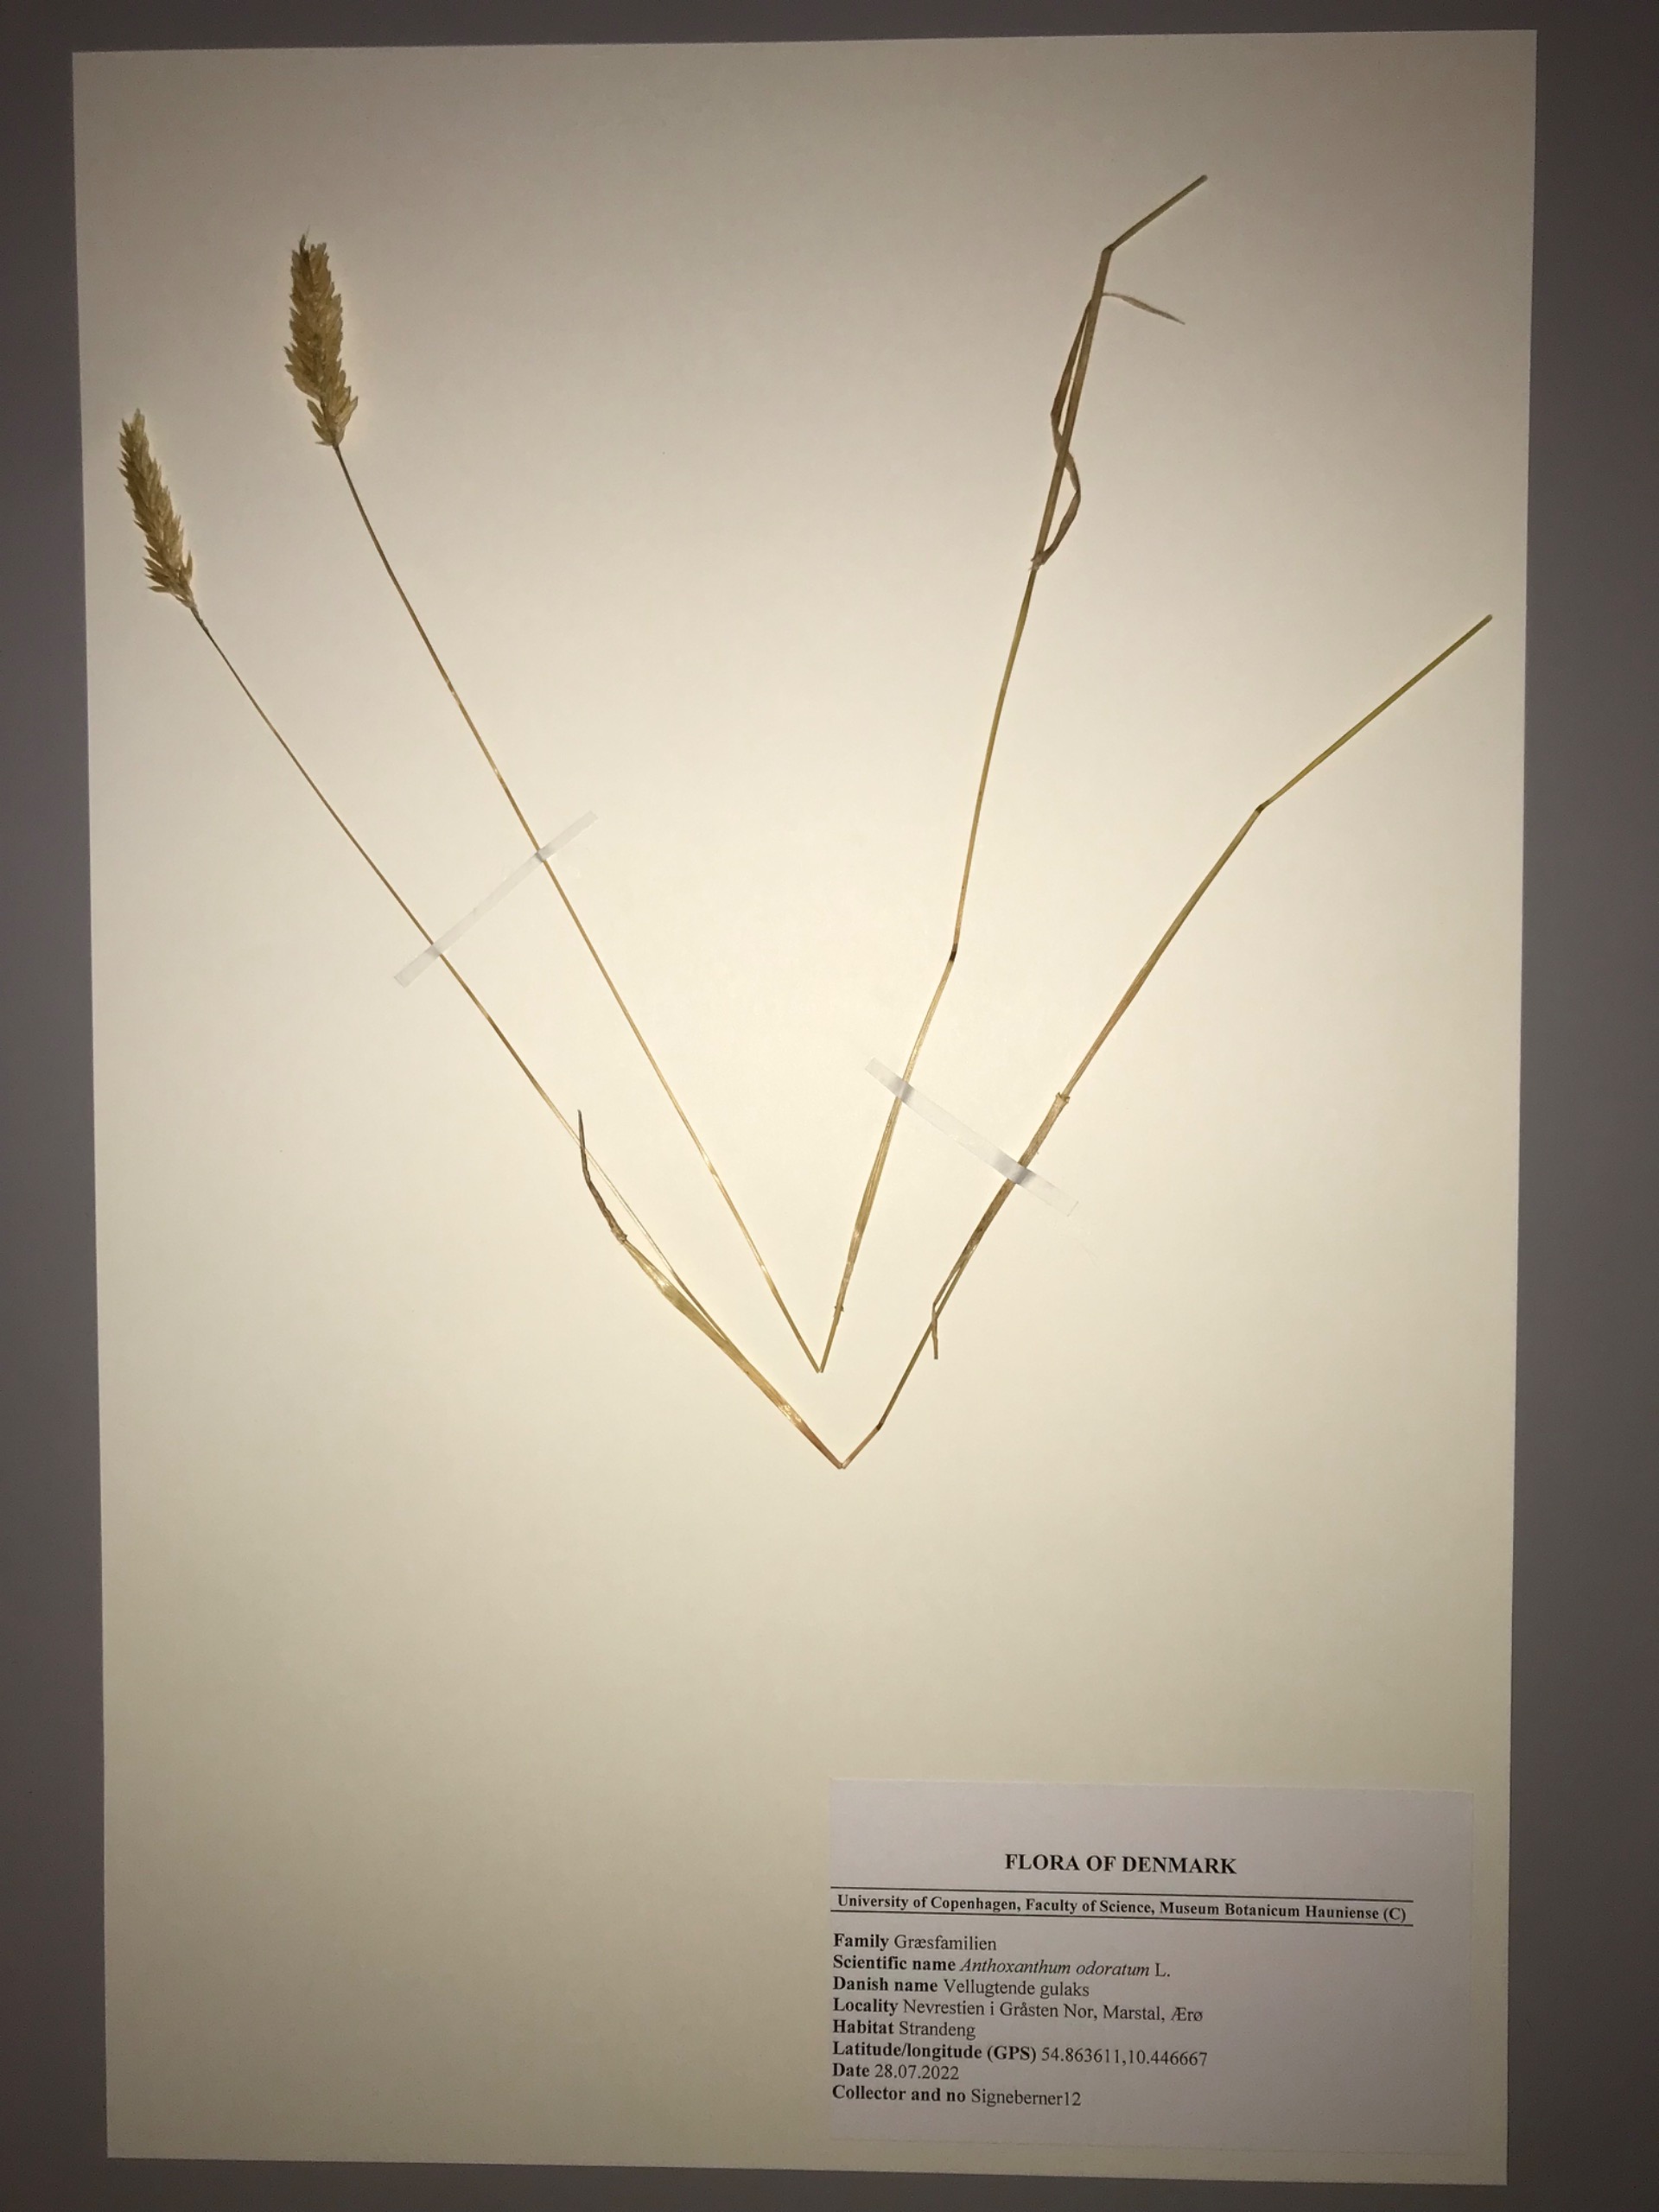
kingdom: Plantae
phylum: Tracheophyta
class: Liliopsida
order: Poales
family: Poaceae
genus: Alopecurus
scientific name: Alopecurus
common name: Rævehaleslægten
